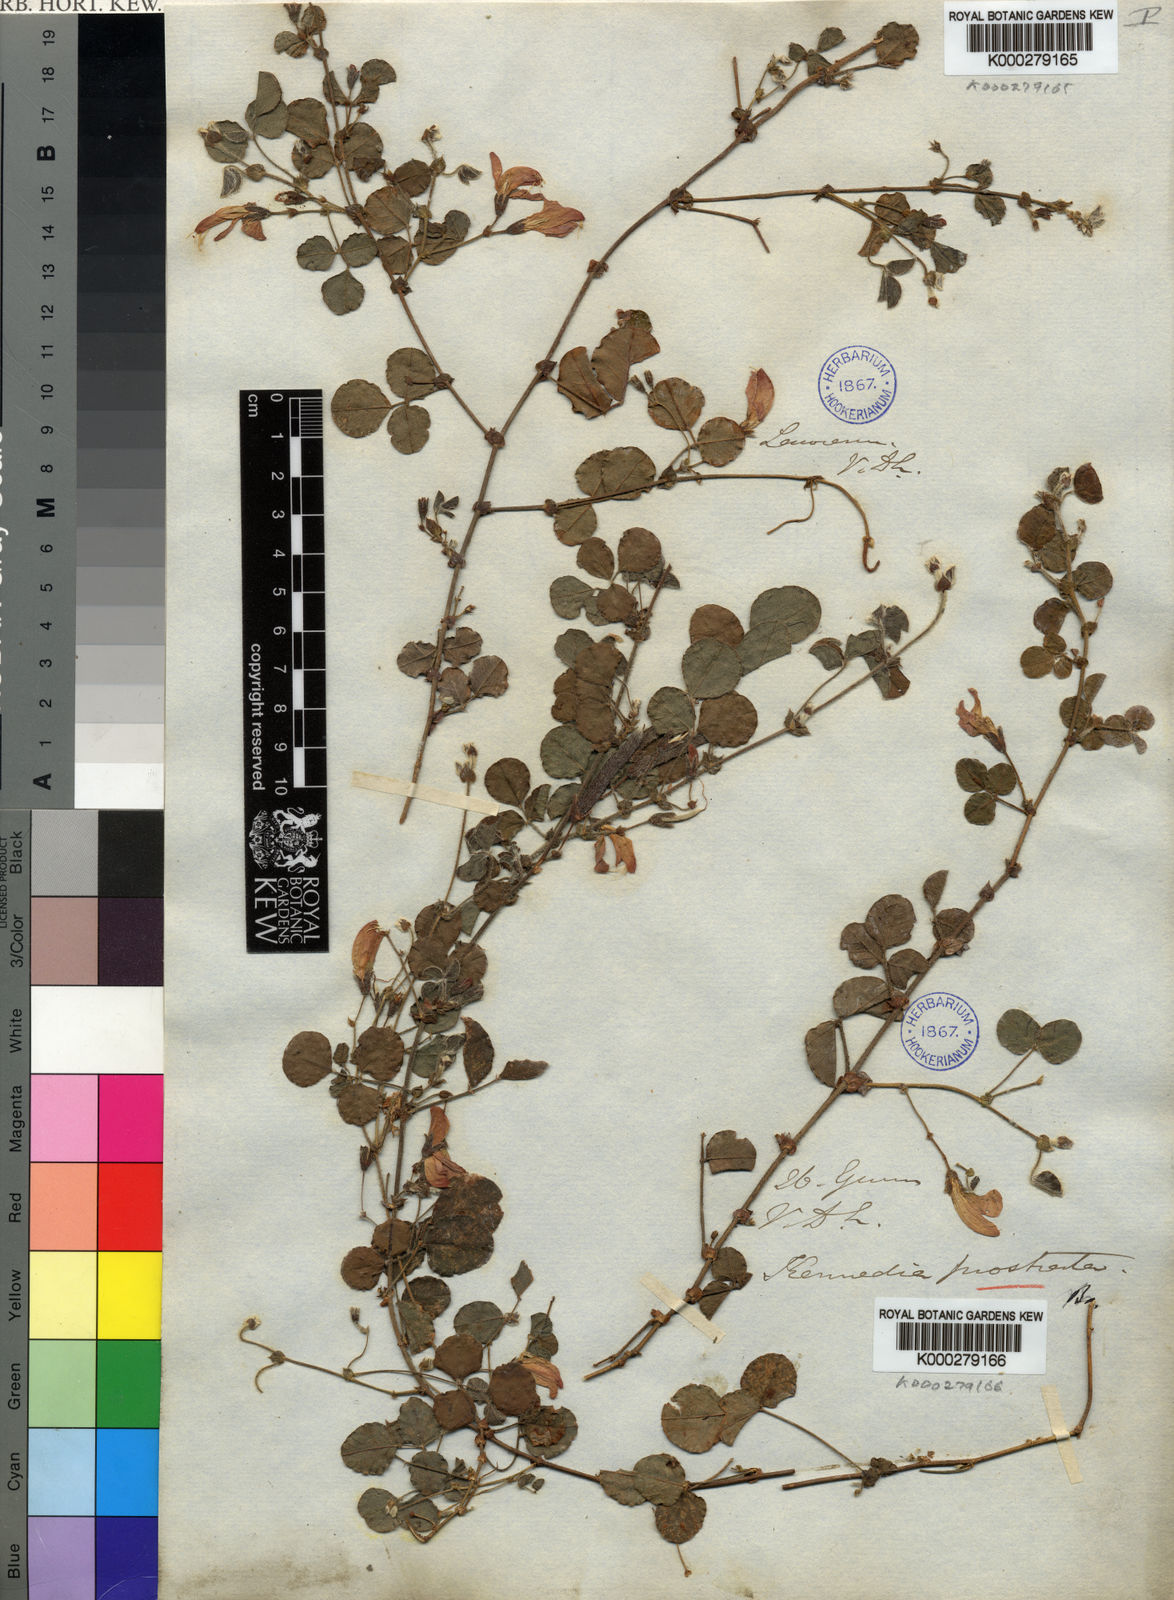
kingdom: Plantae
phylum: Tracheophyta
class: Magnoliopsida
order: Fabales
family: Fabaceae
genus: Kennedia
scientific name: Kennedia prostrata
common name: Running-postman
